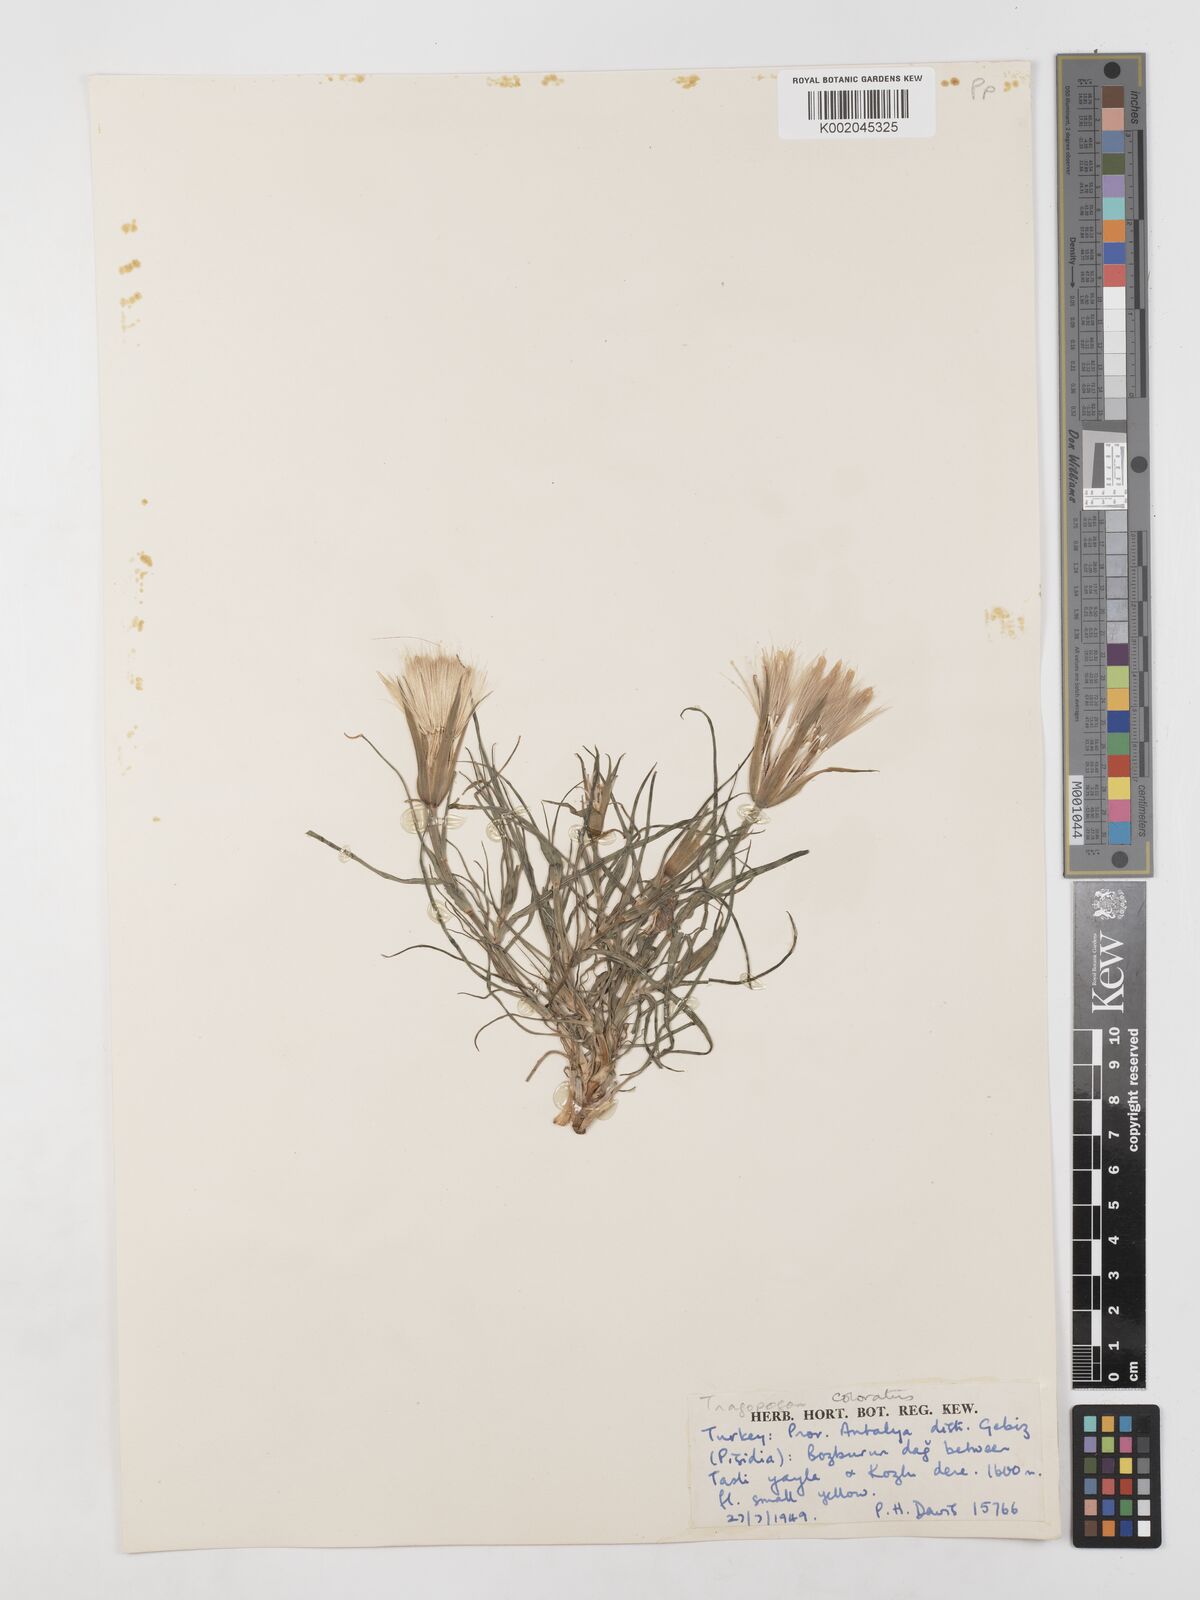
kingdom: Plantae
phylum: Tracheophyta
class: Magnoliopsida
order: Asterales
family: Asteraceae
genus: Tragopogon
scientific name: Tragopogon coloratus
